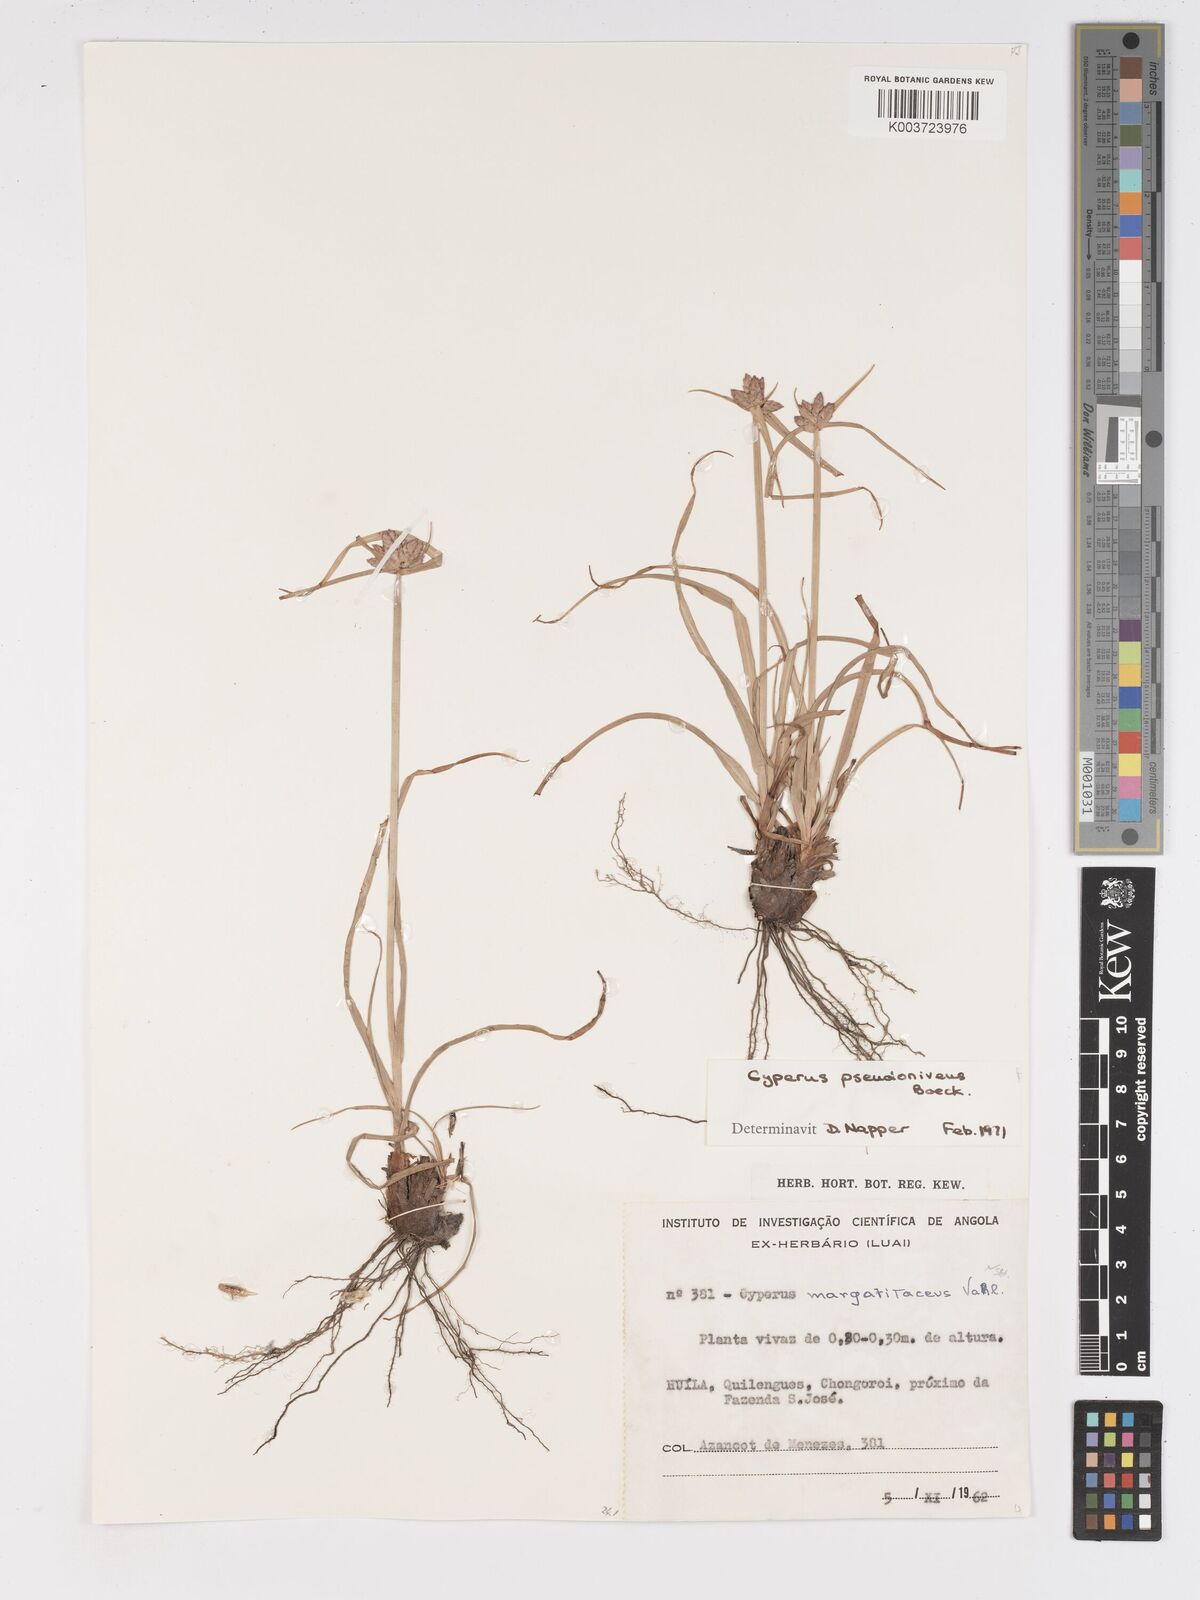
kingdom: Plantae
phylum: Tracheophyta
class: Liliopsida
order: Poales
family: Cyperaceae
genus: Cyperus
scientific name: Cyperus margaritaceus
